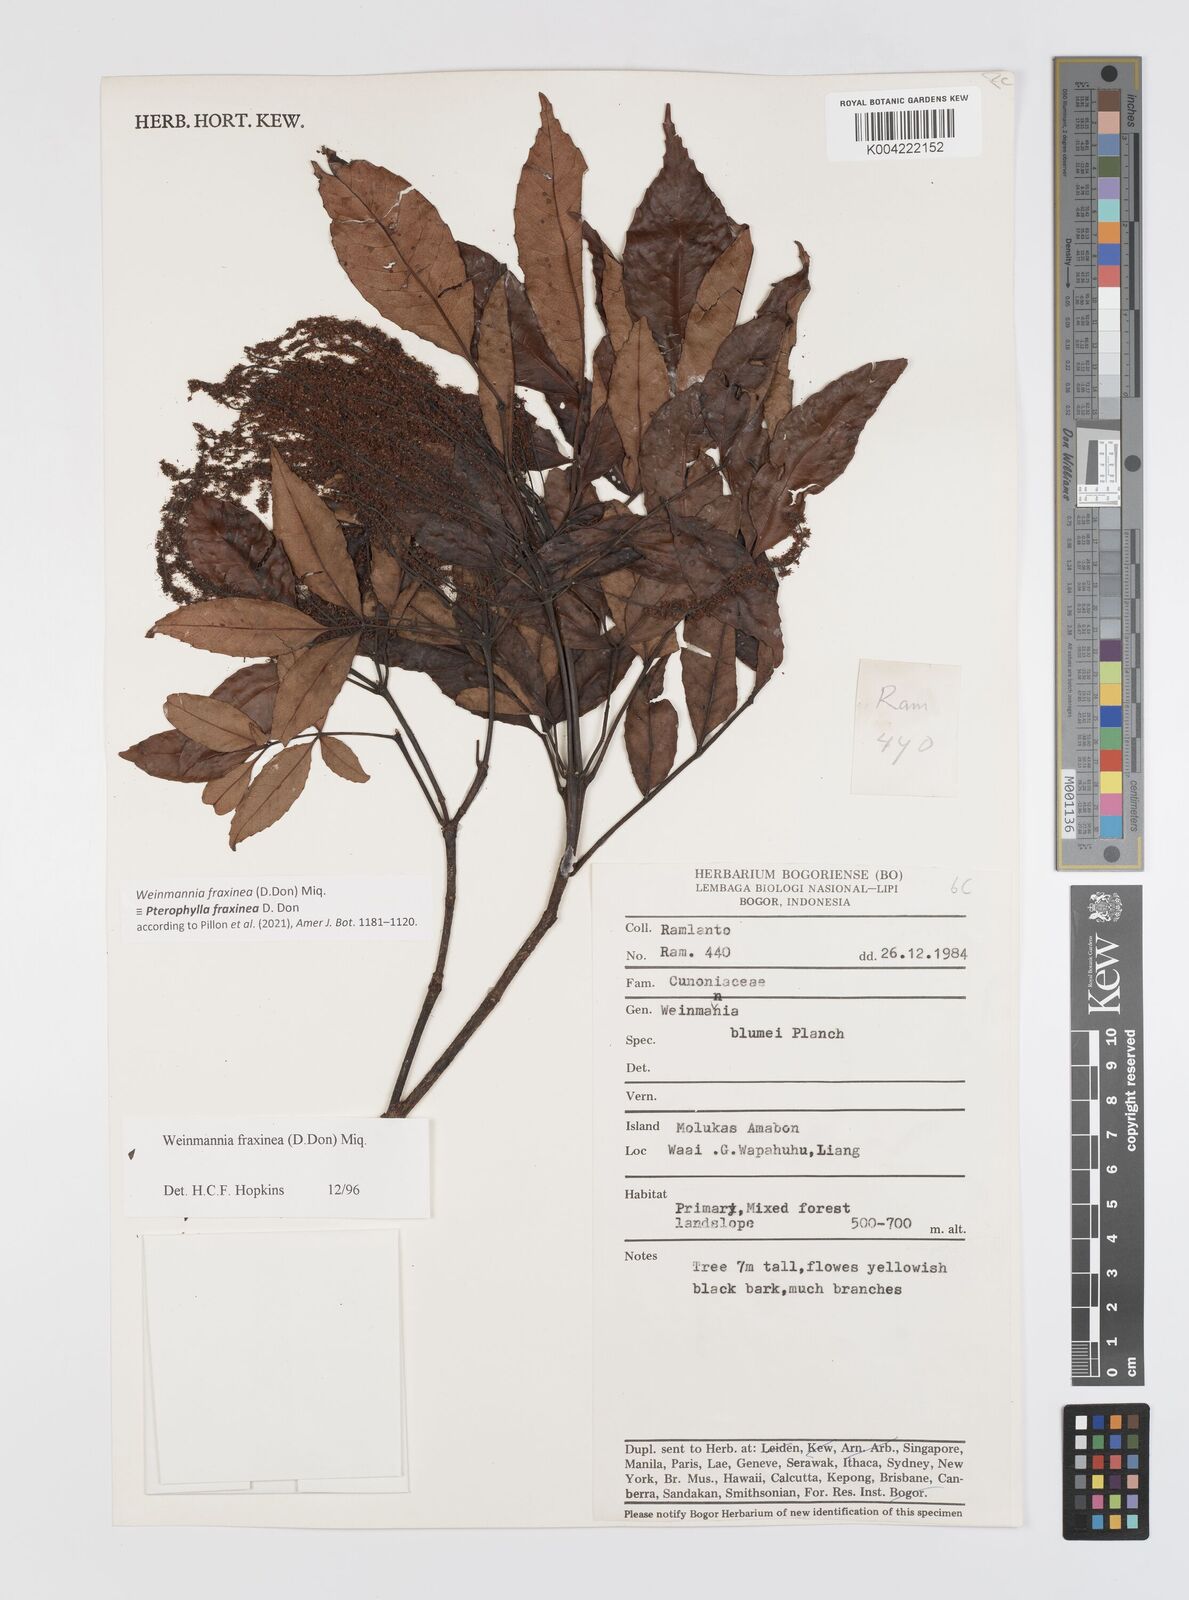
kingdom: Plantae
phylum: Tracheophyta
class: Magnoliopsida
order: Oxalidales
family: Cunoniaceae
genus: Pterophylla
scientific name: Pterophylla fraxinea
